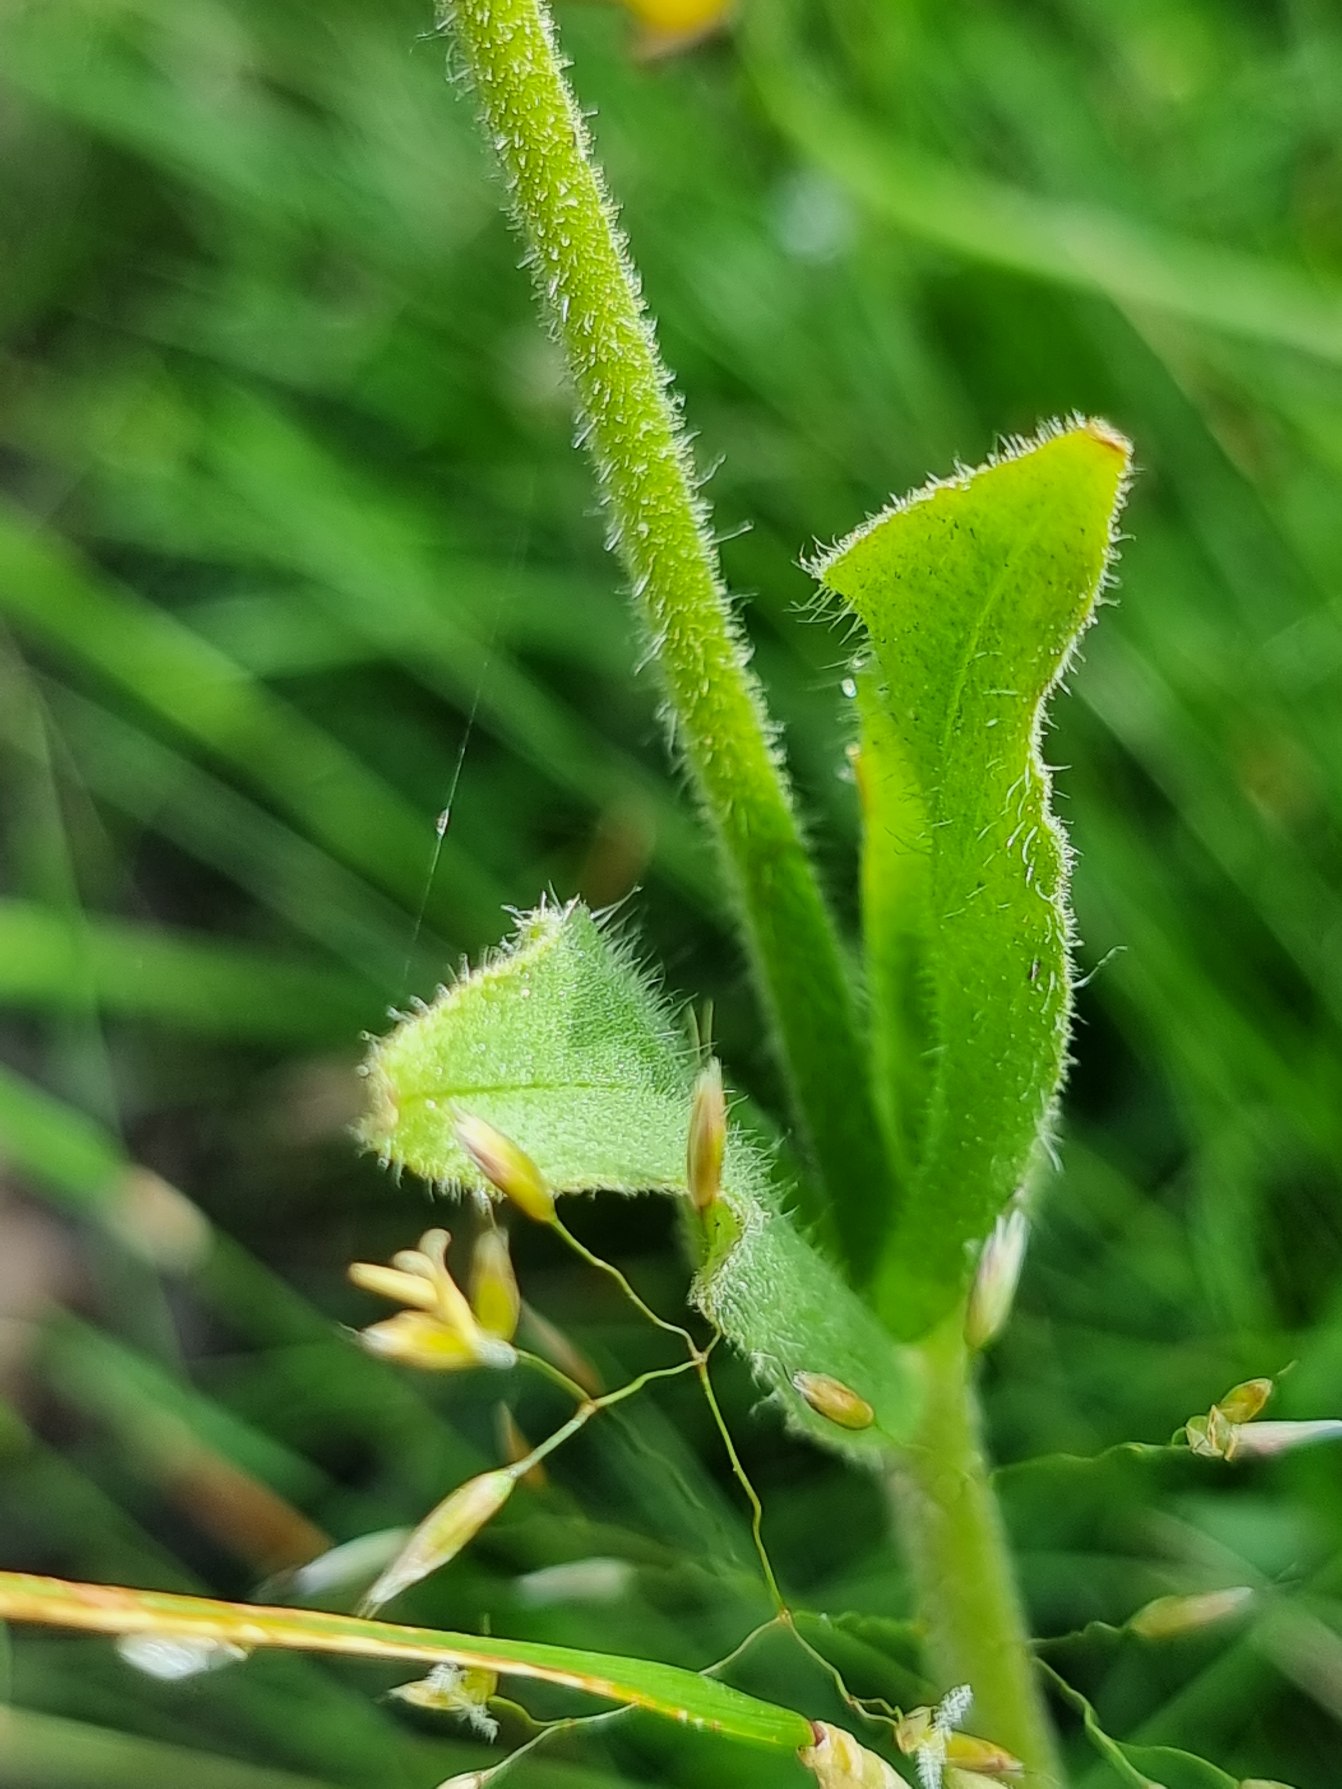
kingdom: Plantae
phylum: Tracheophyta
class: Magnoliopsida
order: Asterales
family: Asteraceae
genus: Arnica
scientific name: Arnica montana
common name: Guldblomme
